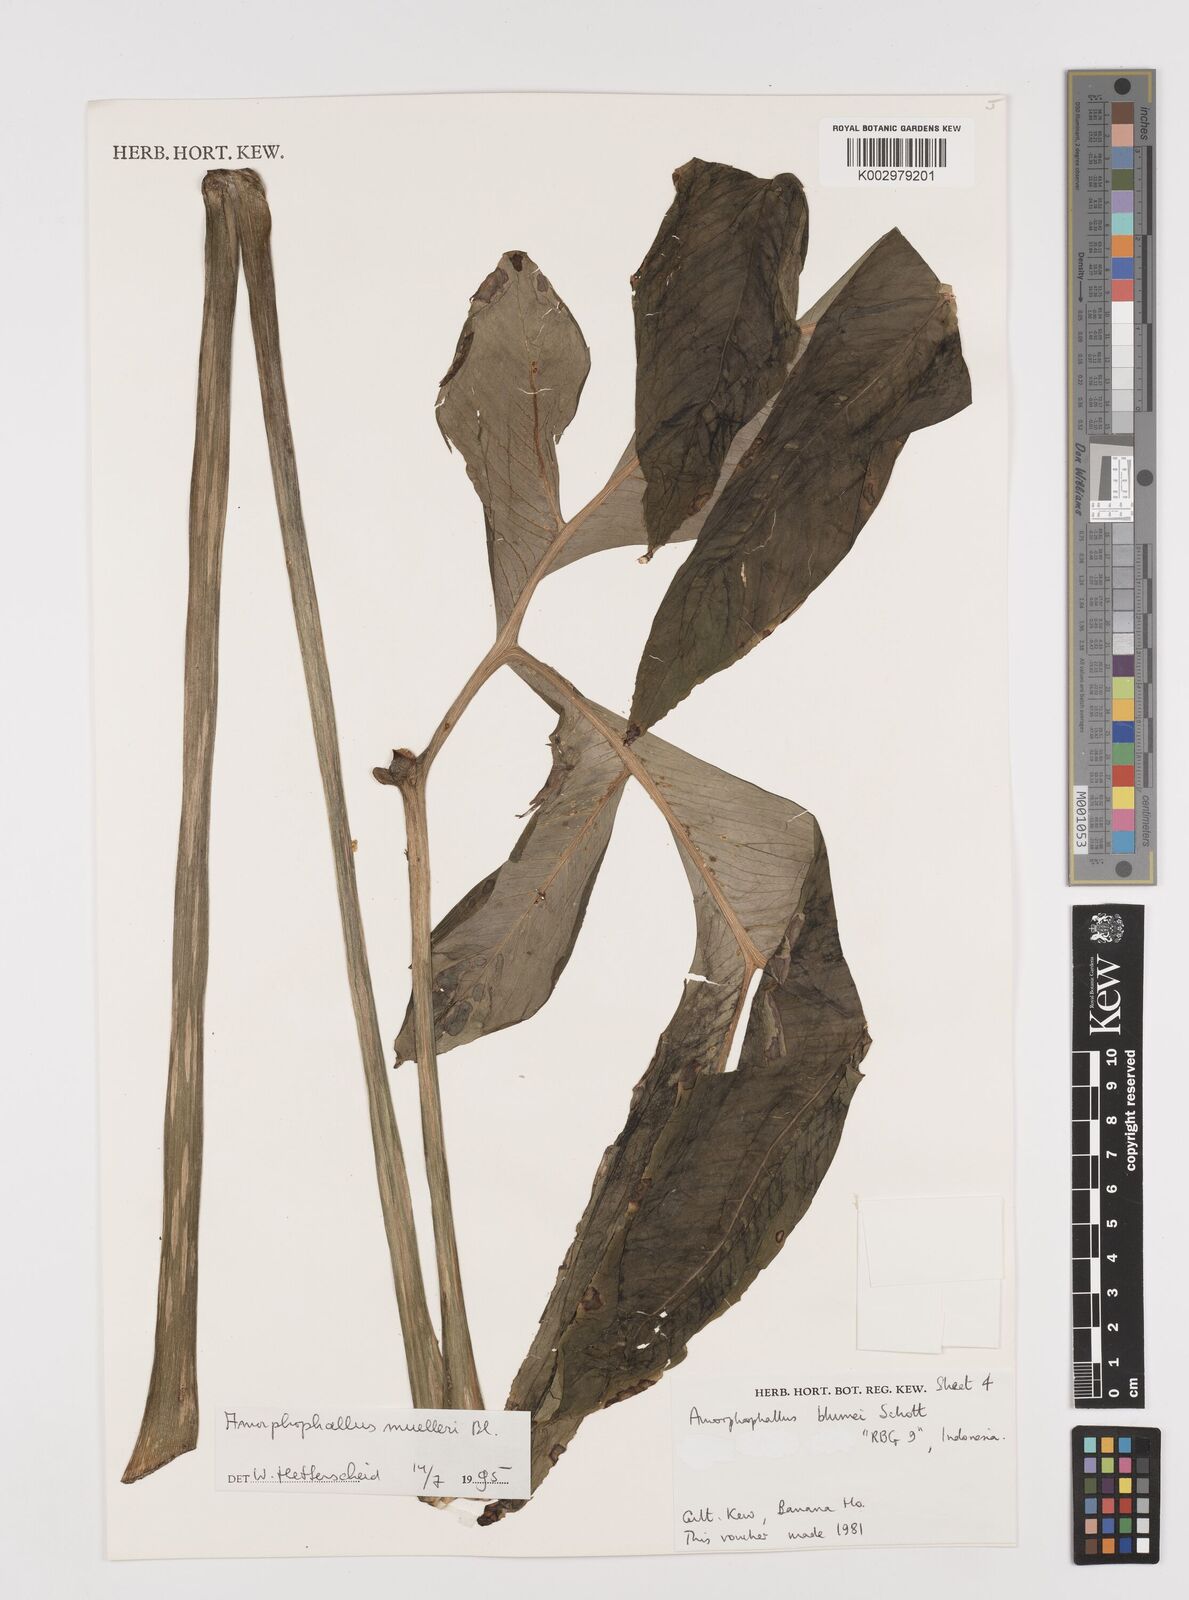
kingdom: Plantae
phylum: Tracheophyta
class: Liliopsida
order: Alismatales
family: Araceae
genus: Amorphophallus
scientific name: Amorphophallus muelleri
